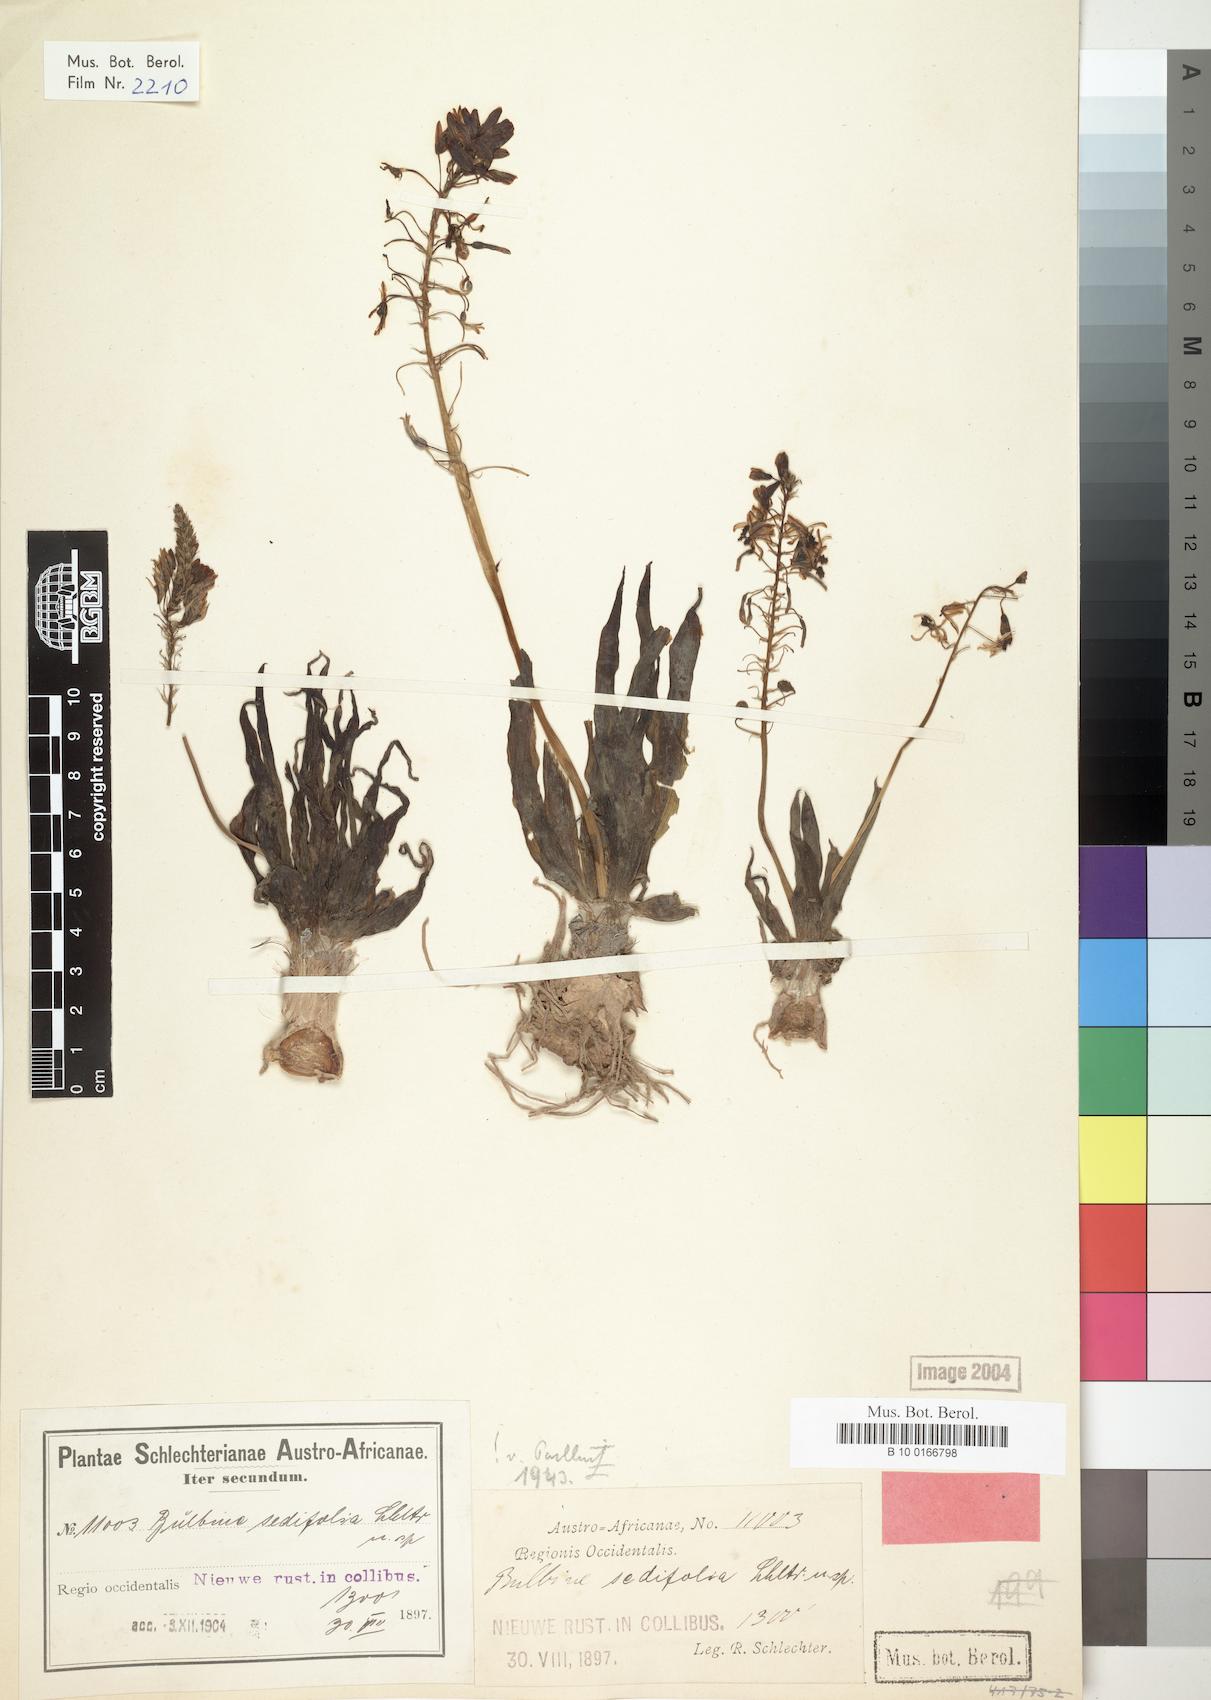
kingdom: Plantae
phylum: Tracheophyta
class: Liliopsida
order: Asparagales
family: Asphodelaceae
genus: Bulbine
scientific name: Bulbine sedifolia
